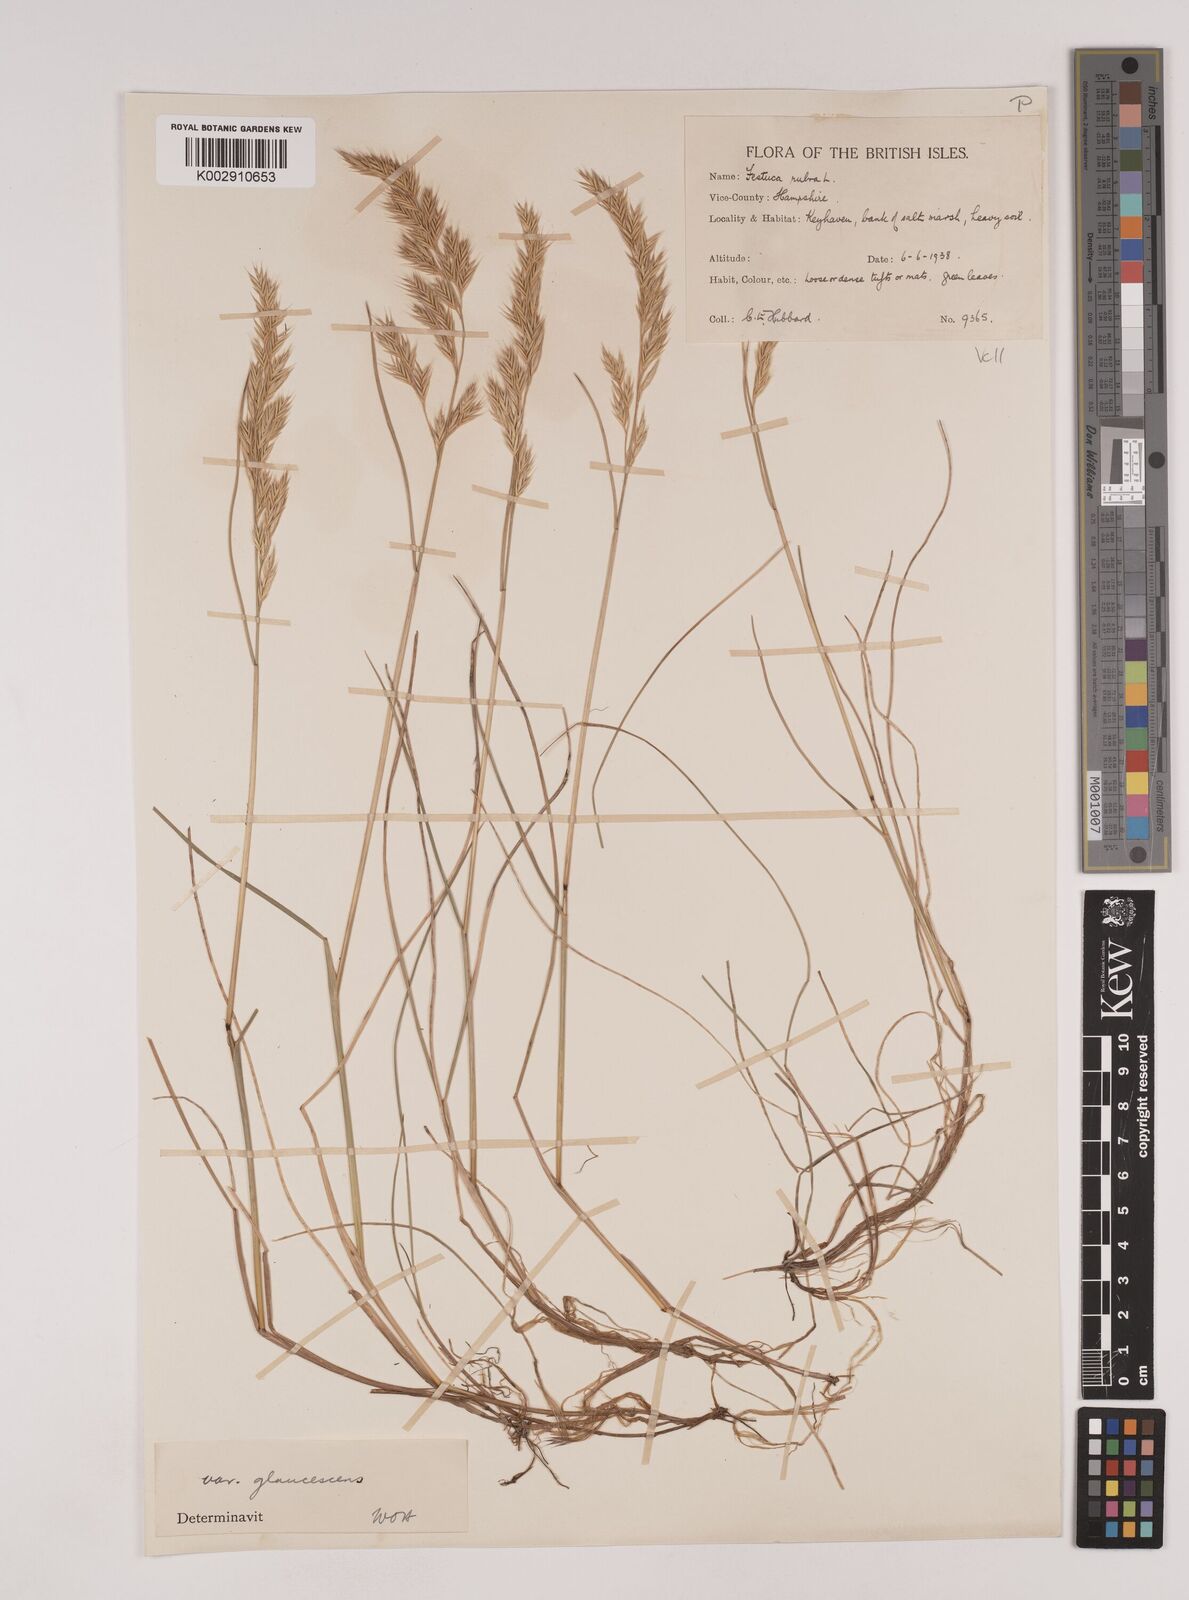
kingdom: Plantae
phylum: Tracheophyta
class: Liliopsida
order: Poales
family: Poaceae
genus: Festuca
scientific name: Festuca rubra
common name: Red fescue
